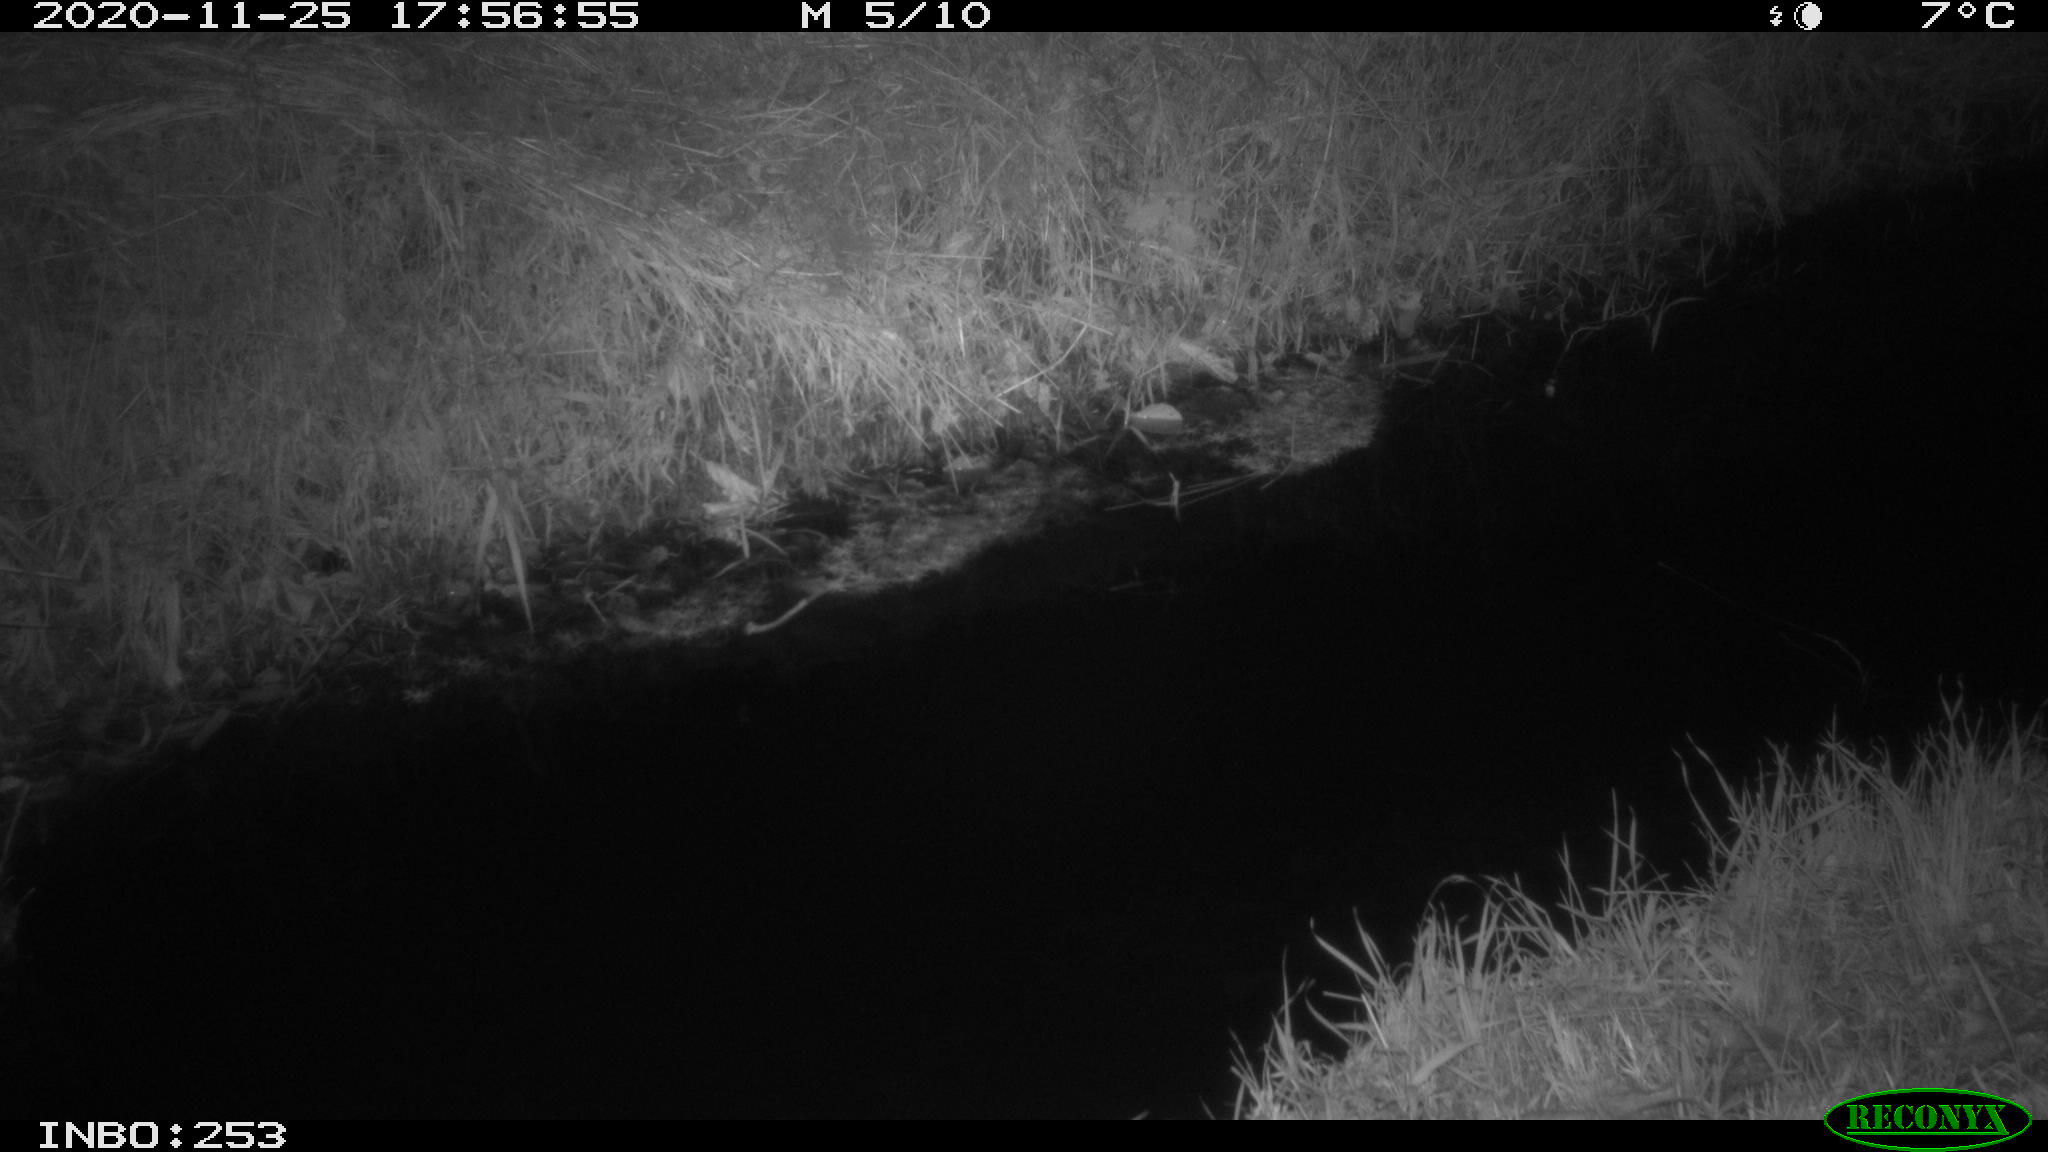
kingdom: Animalia
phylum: Chordata
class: Mammalia
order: Rodentia
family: Muridae
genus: Rattus
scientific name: Rattus norvegicus
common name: Brown rat
